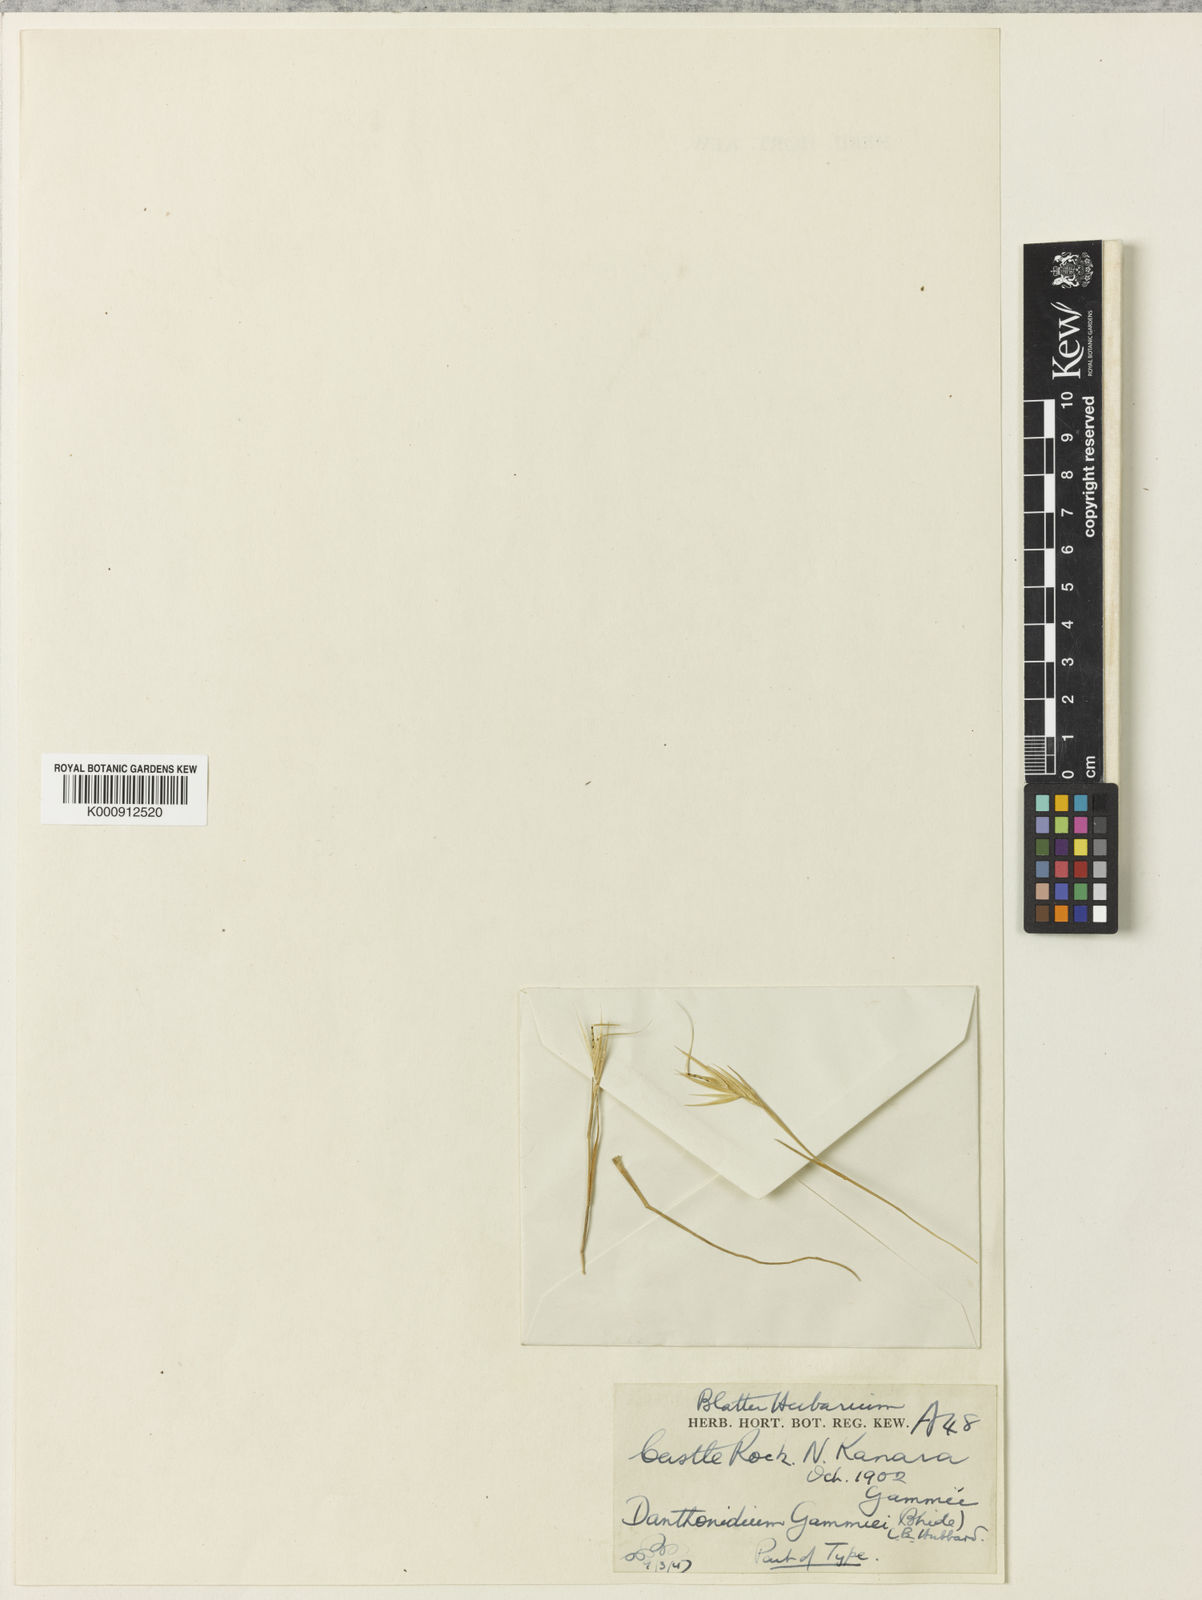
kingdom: Plantae
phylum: Tracheophyta
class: Liliopsida
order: Poales
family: Poaceae
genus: Danthonidium
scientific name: Danthonidium gammiei
